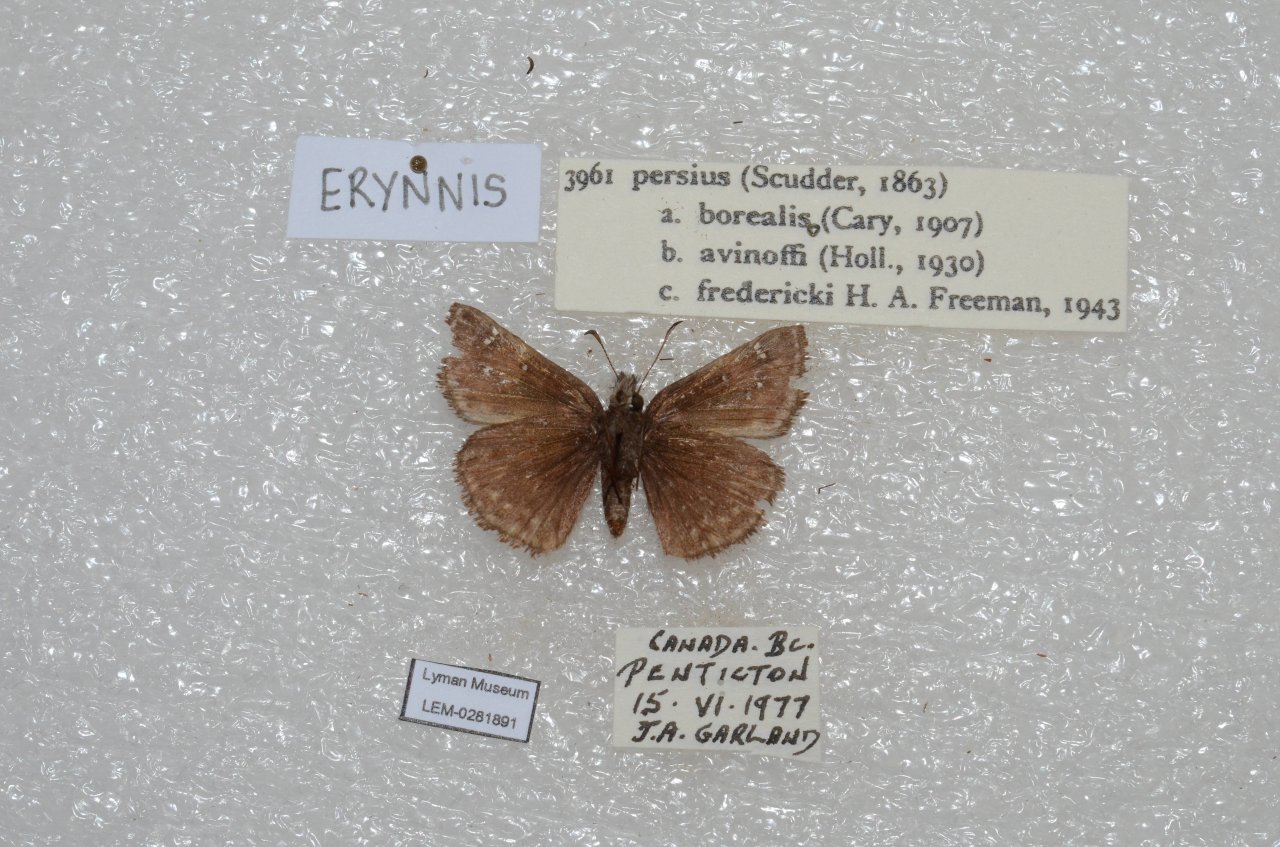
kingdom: Animalia
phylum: Arthropoda
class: Insecta
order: Lepidoptera
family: Hesperiidae
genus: Gesta
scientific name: Gesta
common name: Persius Duskywing
